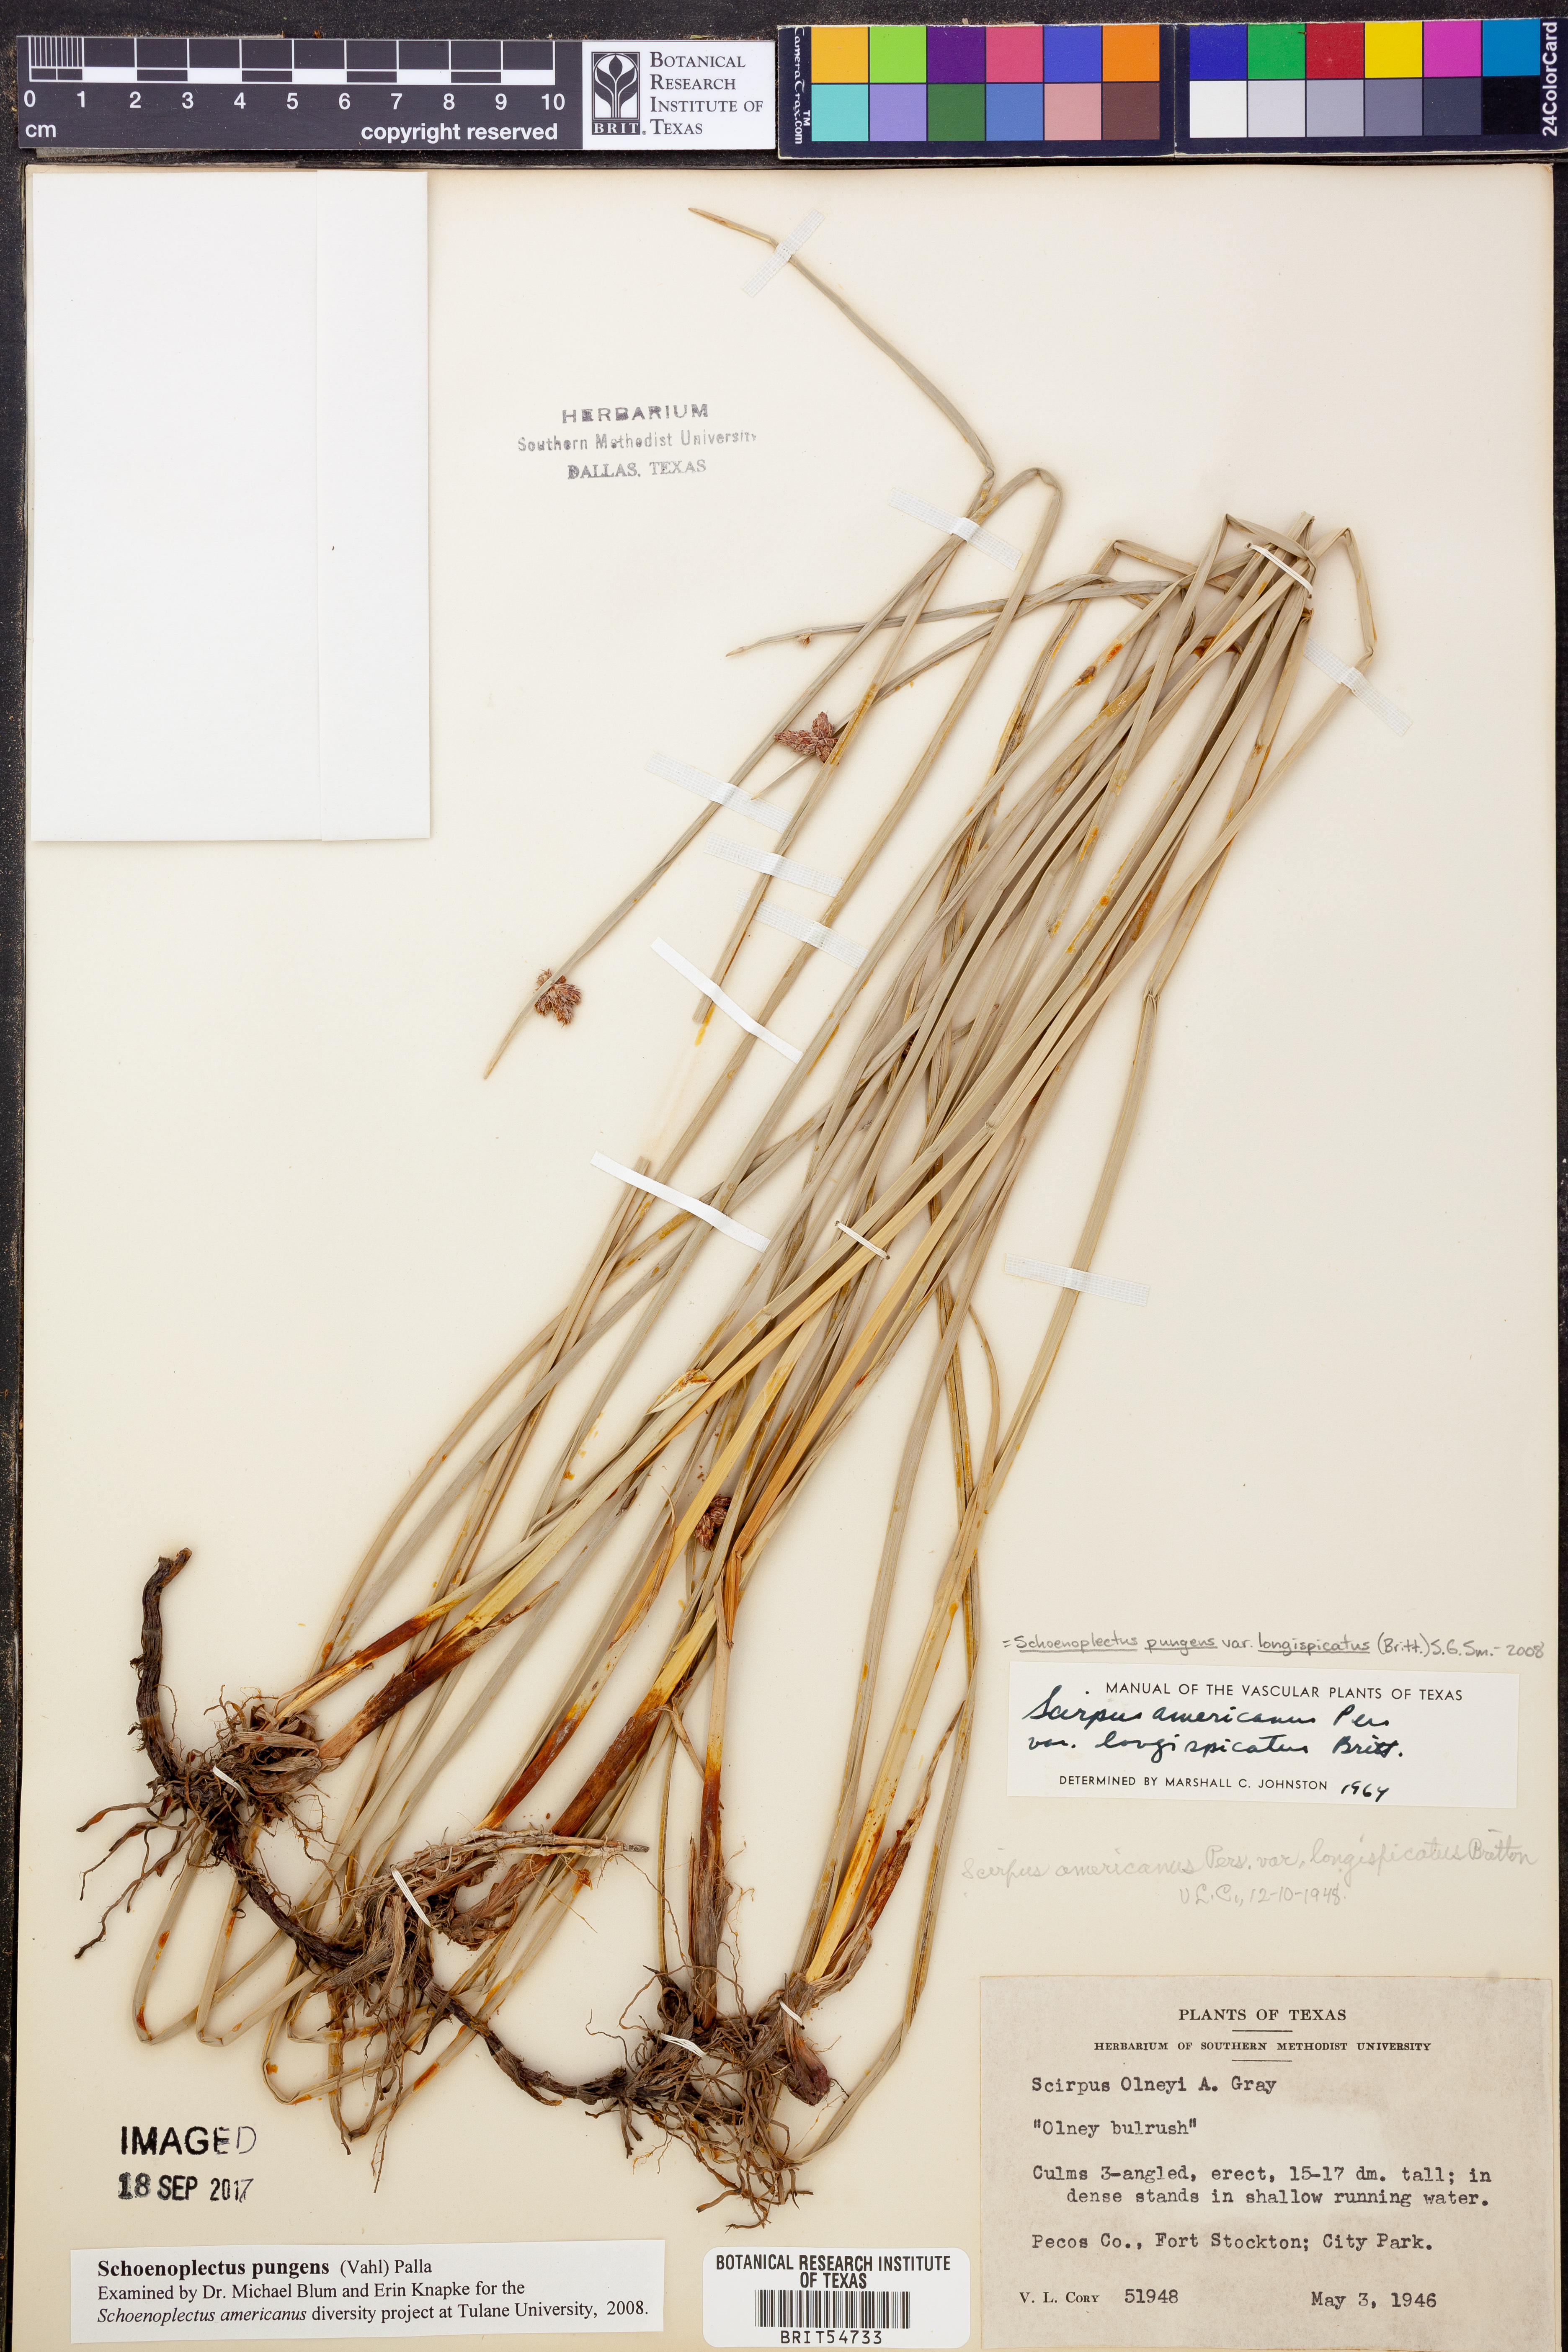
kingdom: Plantae
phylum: Tracheophyta
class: Liliopsida
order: Poales
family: Cyperaceae
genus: Schoenoplectus
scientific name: Schoenoplectus americanus
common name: American three-square bulrush
